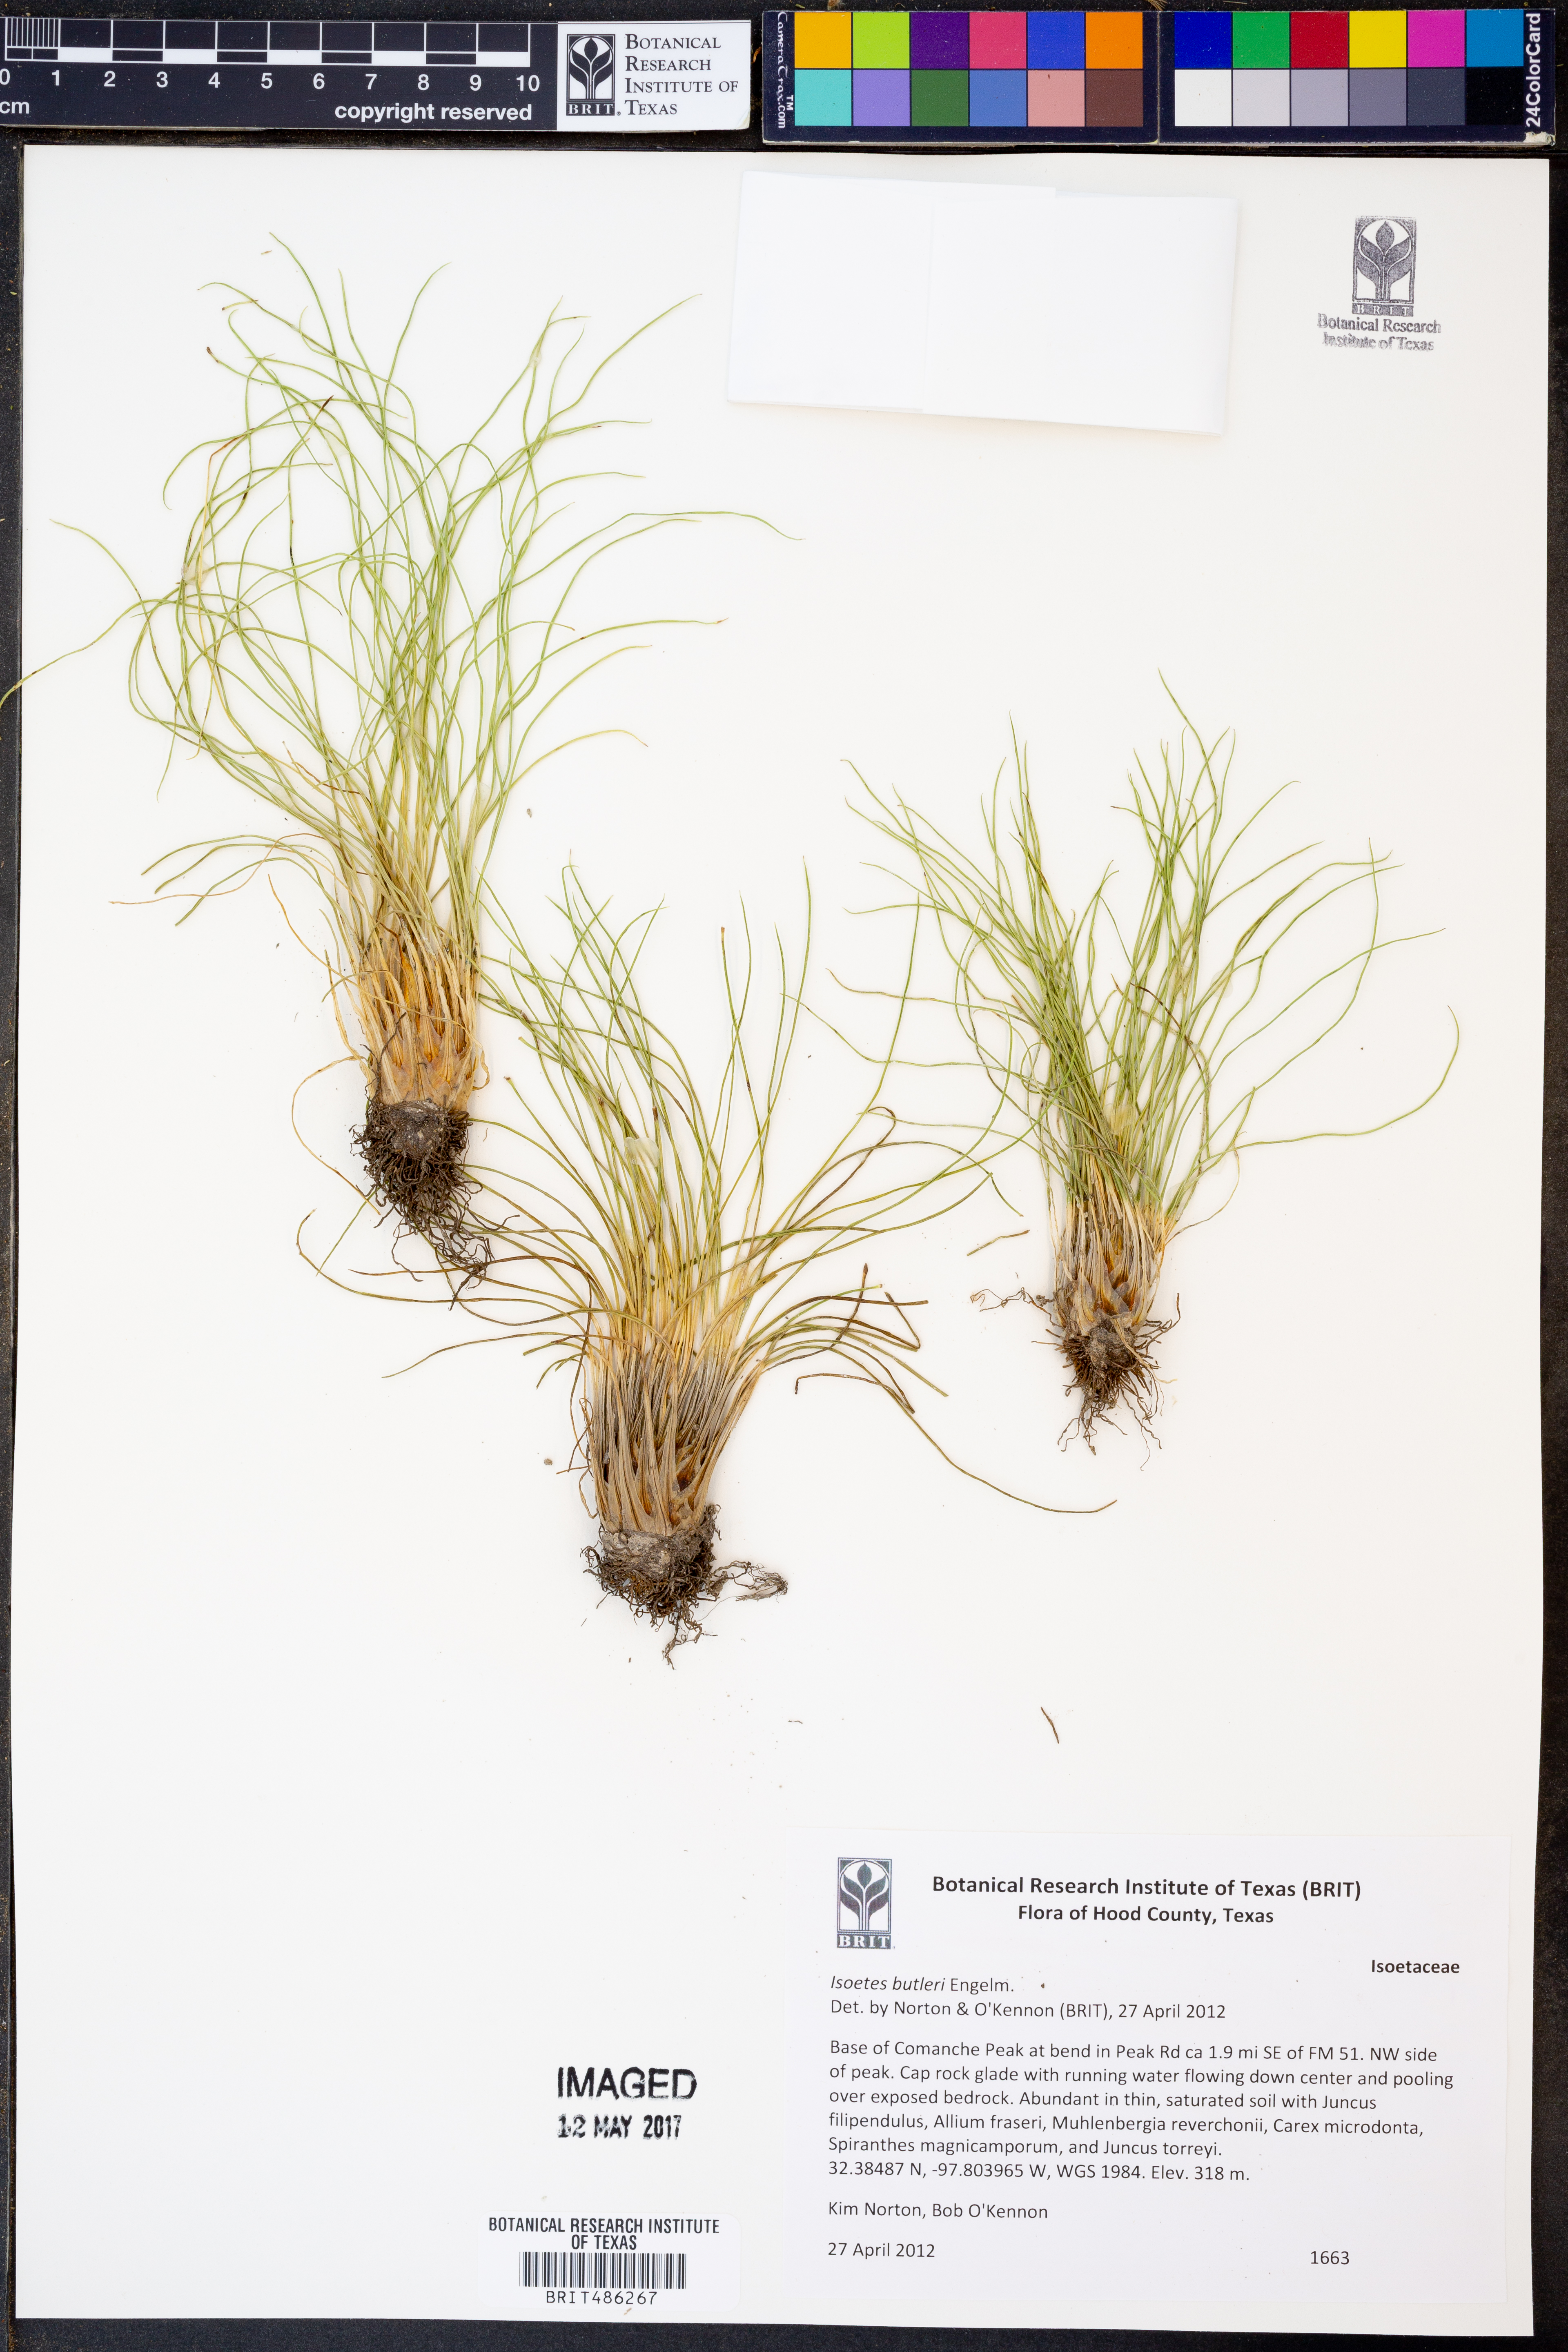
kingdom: Plantae
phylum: Tracheophyta
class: Lycopodiopsida
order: Isoetales
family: Isoetaceae
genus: Isoetes
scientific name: Isoetes butleri
